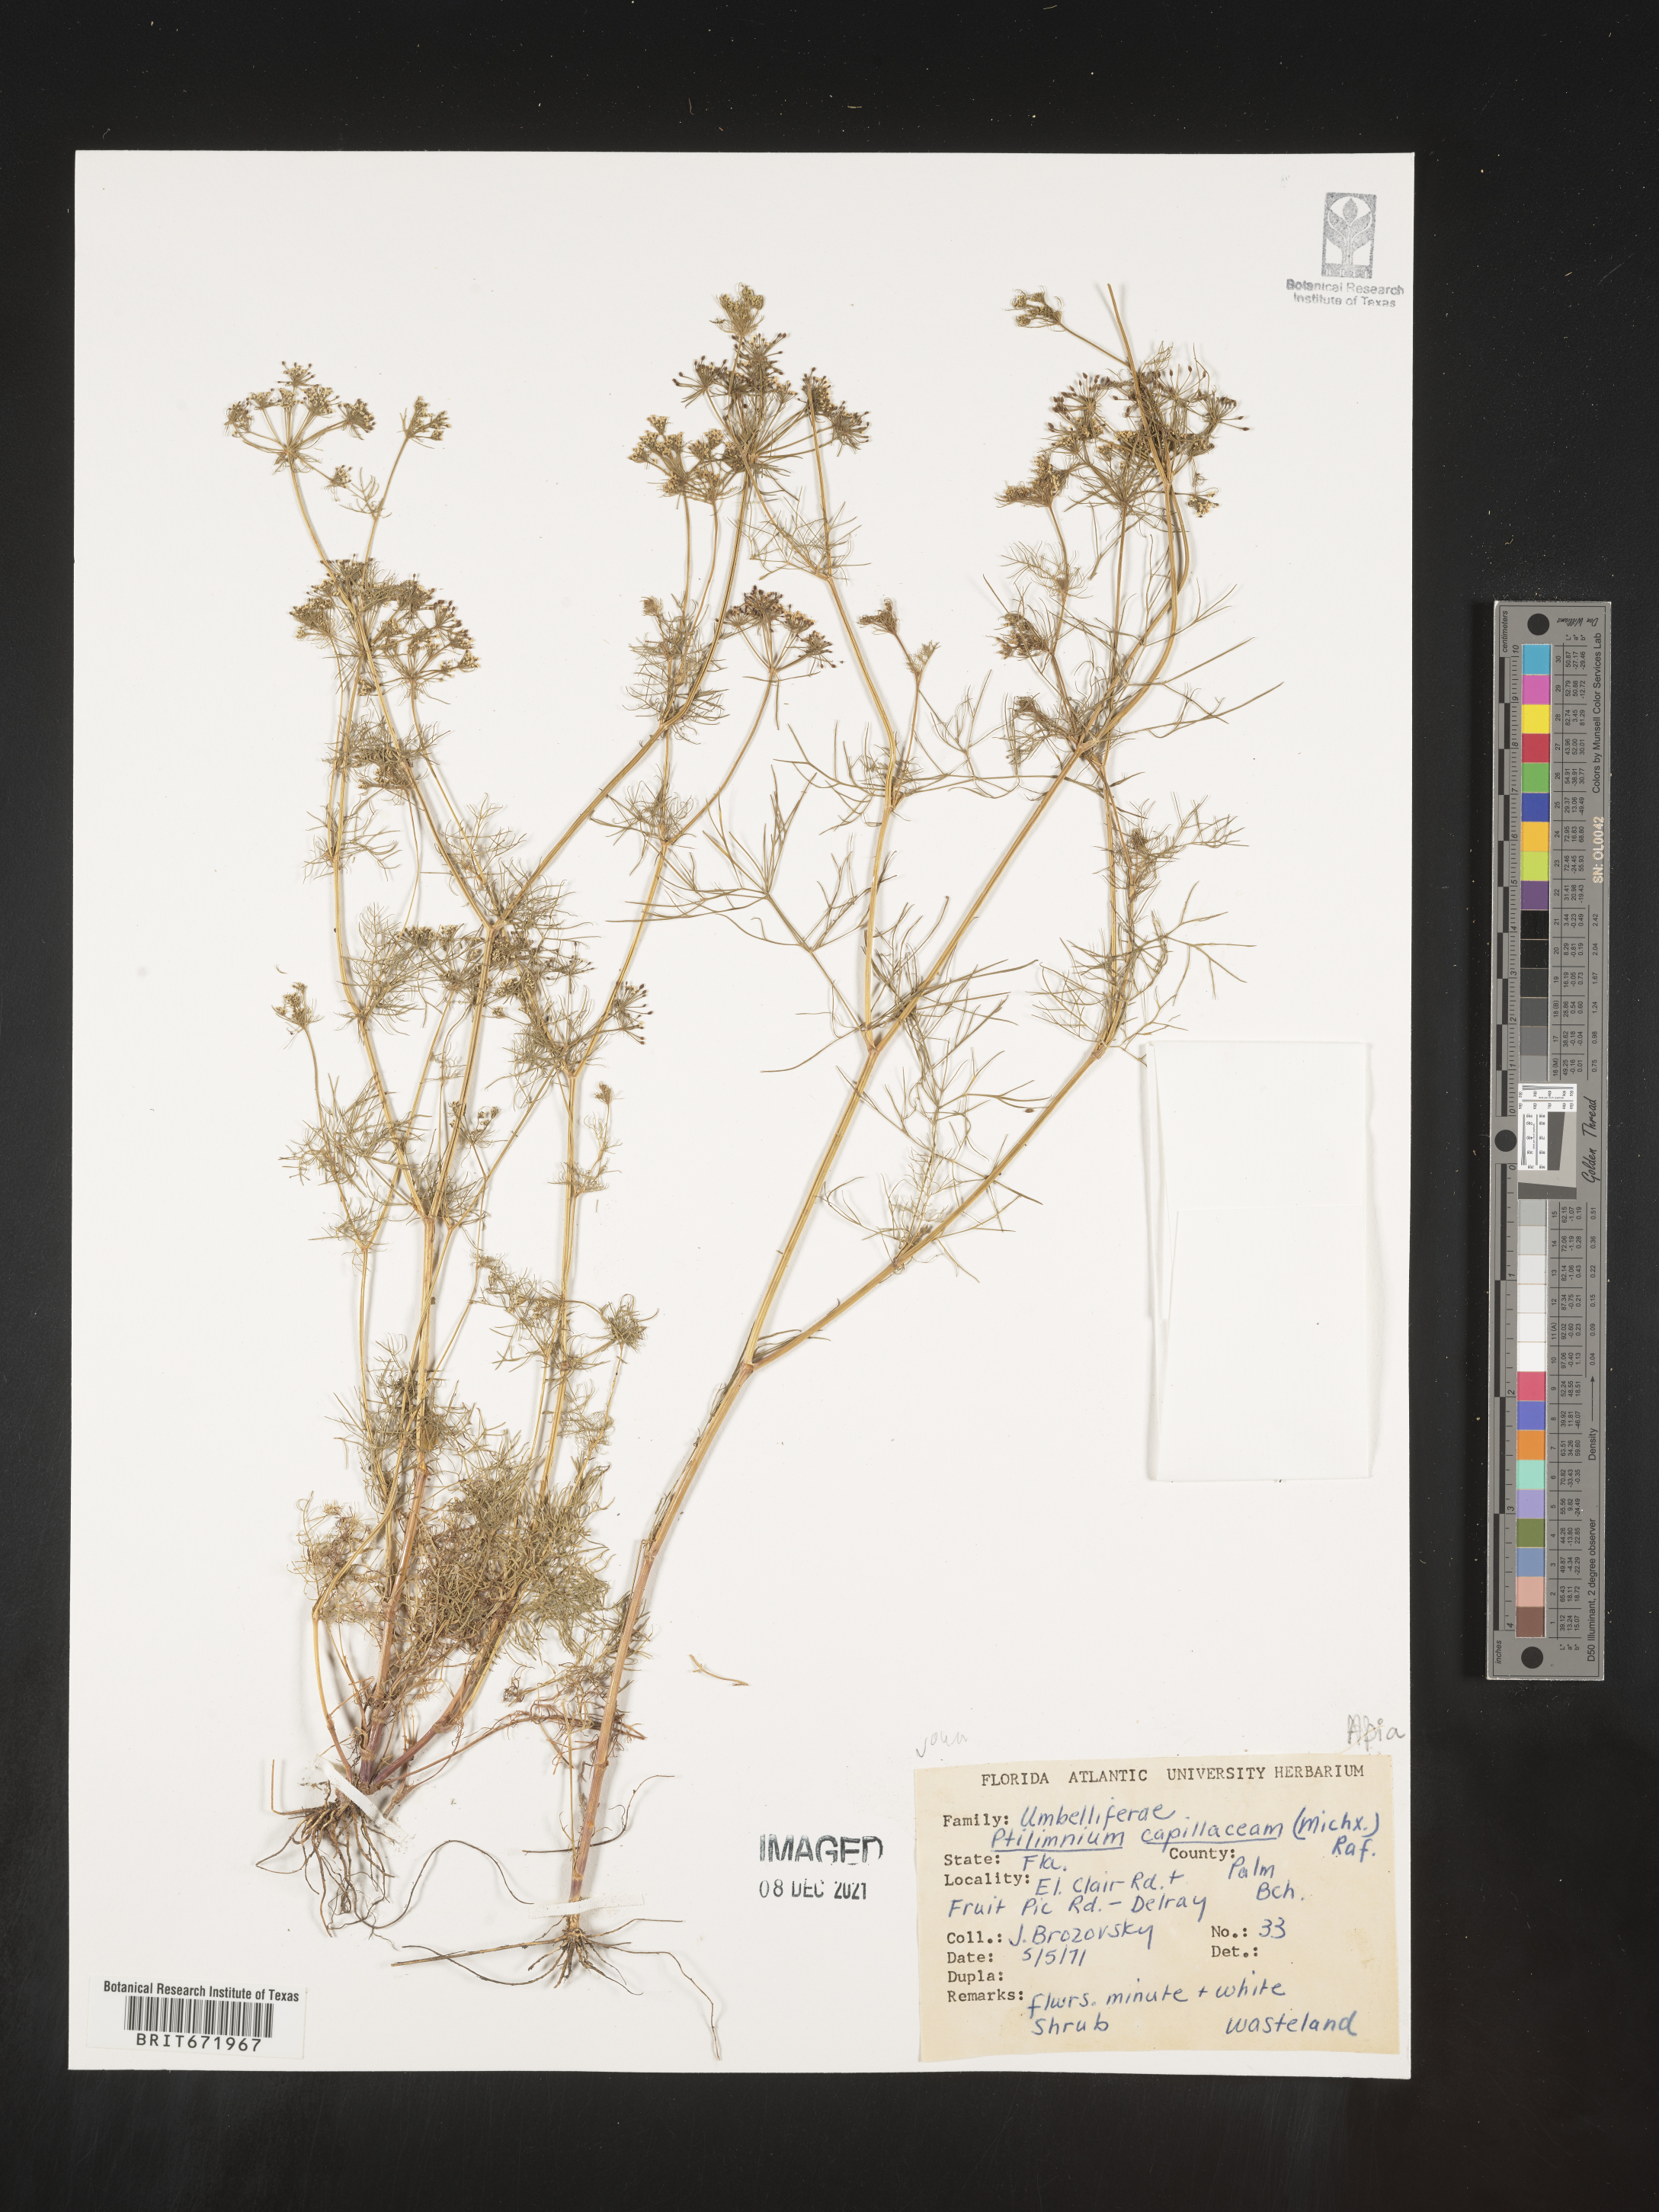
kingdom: Plantae
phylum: Tracheophyta
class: Magnoliopsida
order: Apiales
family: Apiaceae
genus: Ptilimnium
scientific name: Ptilimnium capillaceum
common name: Herbwilliam
